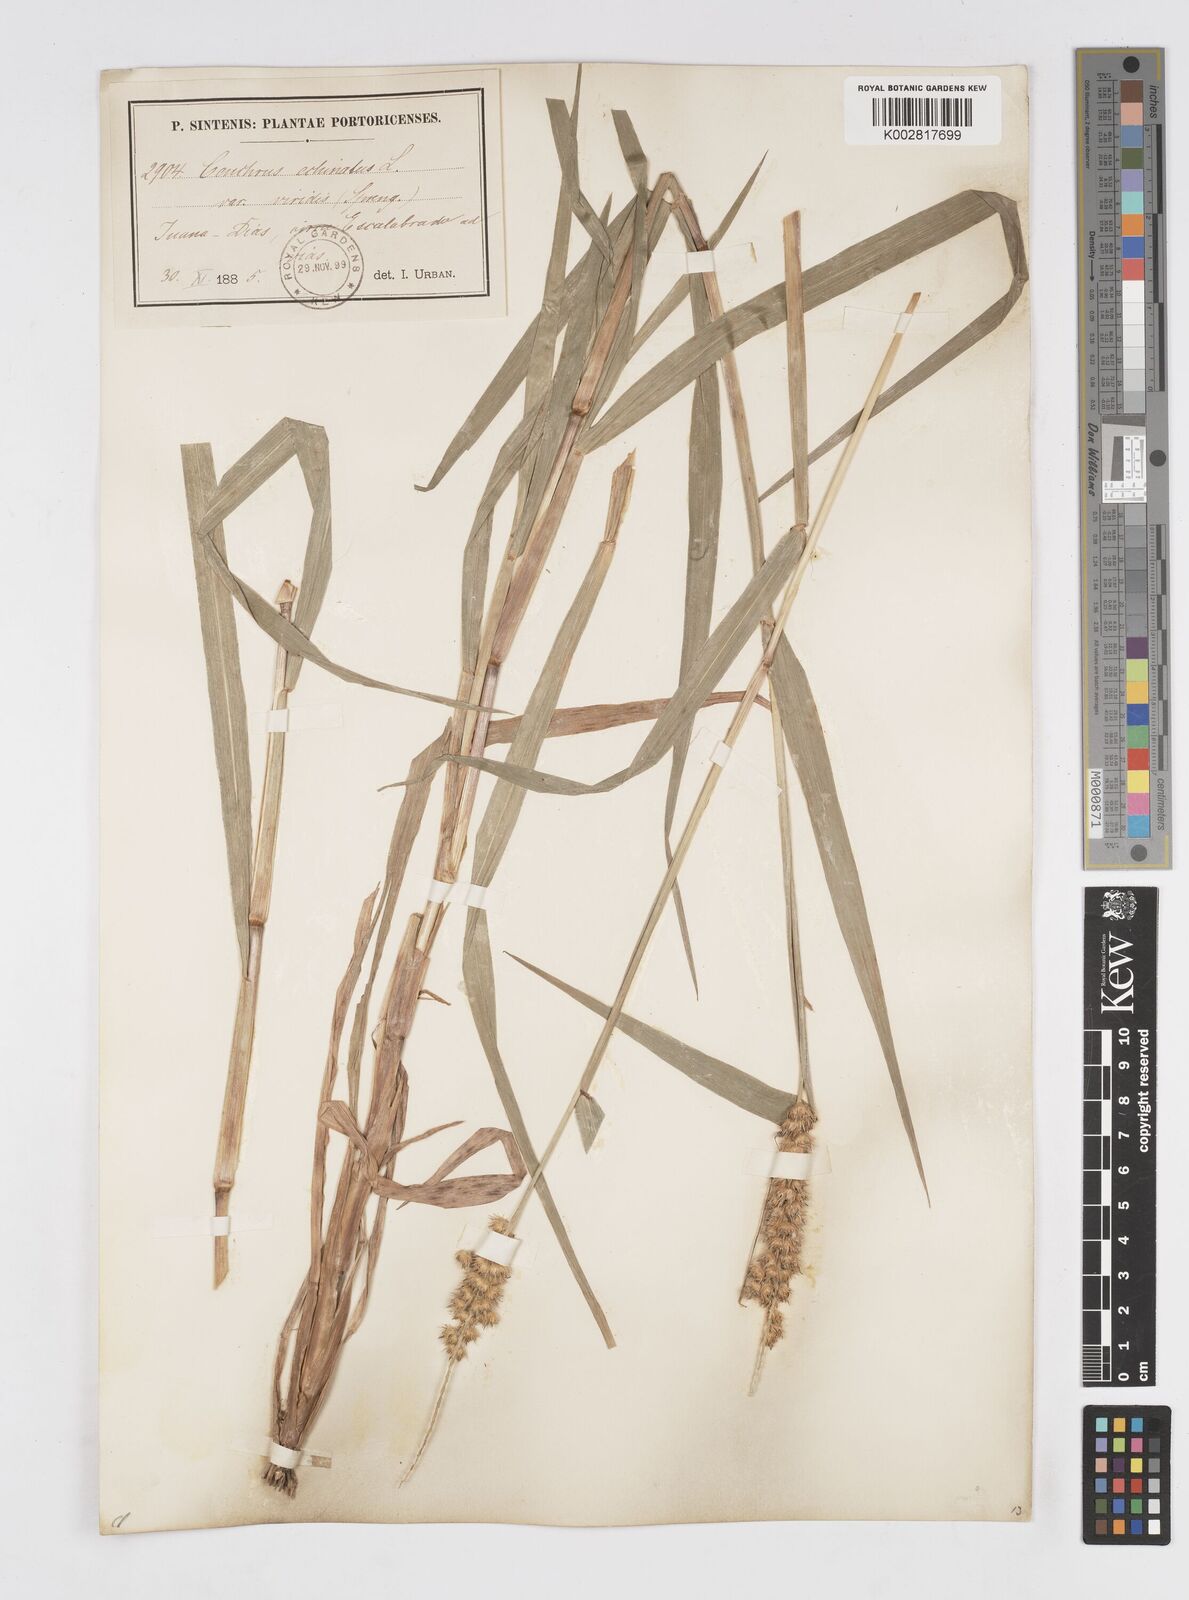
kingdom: Plantae
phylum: Tracheophyta
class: Liliopsida
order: Poales
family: Poaceae
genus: Cenchrus
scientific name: Cenchrus
